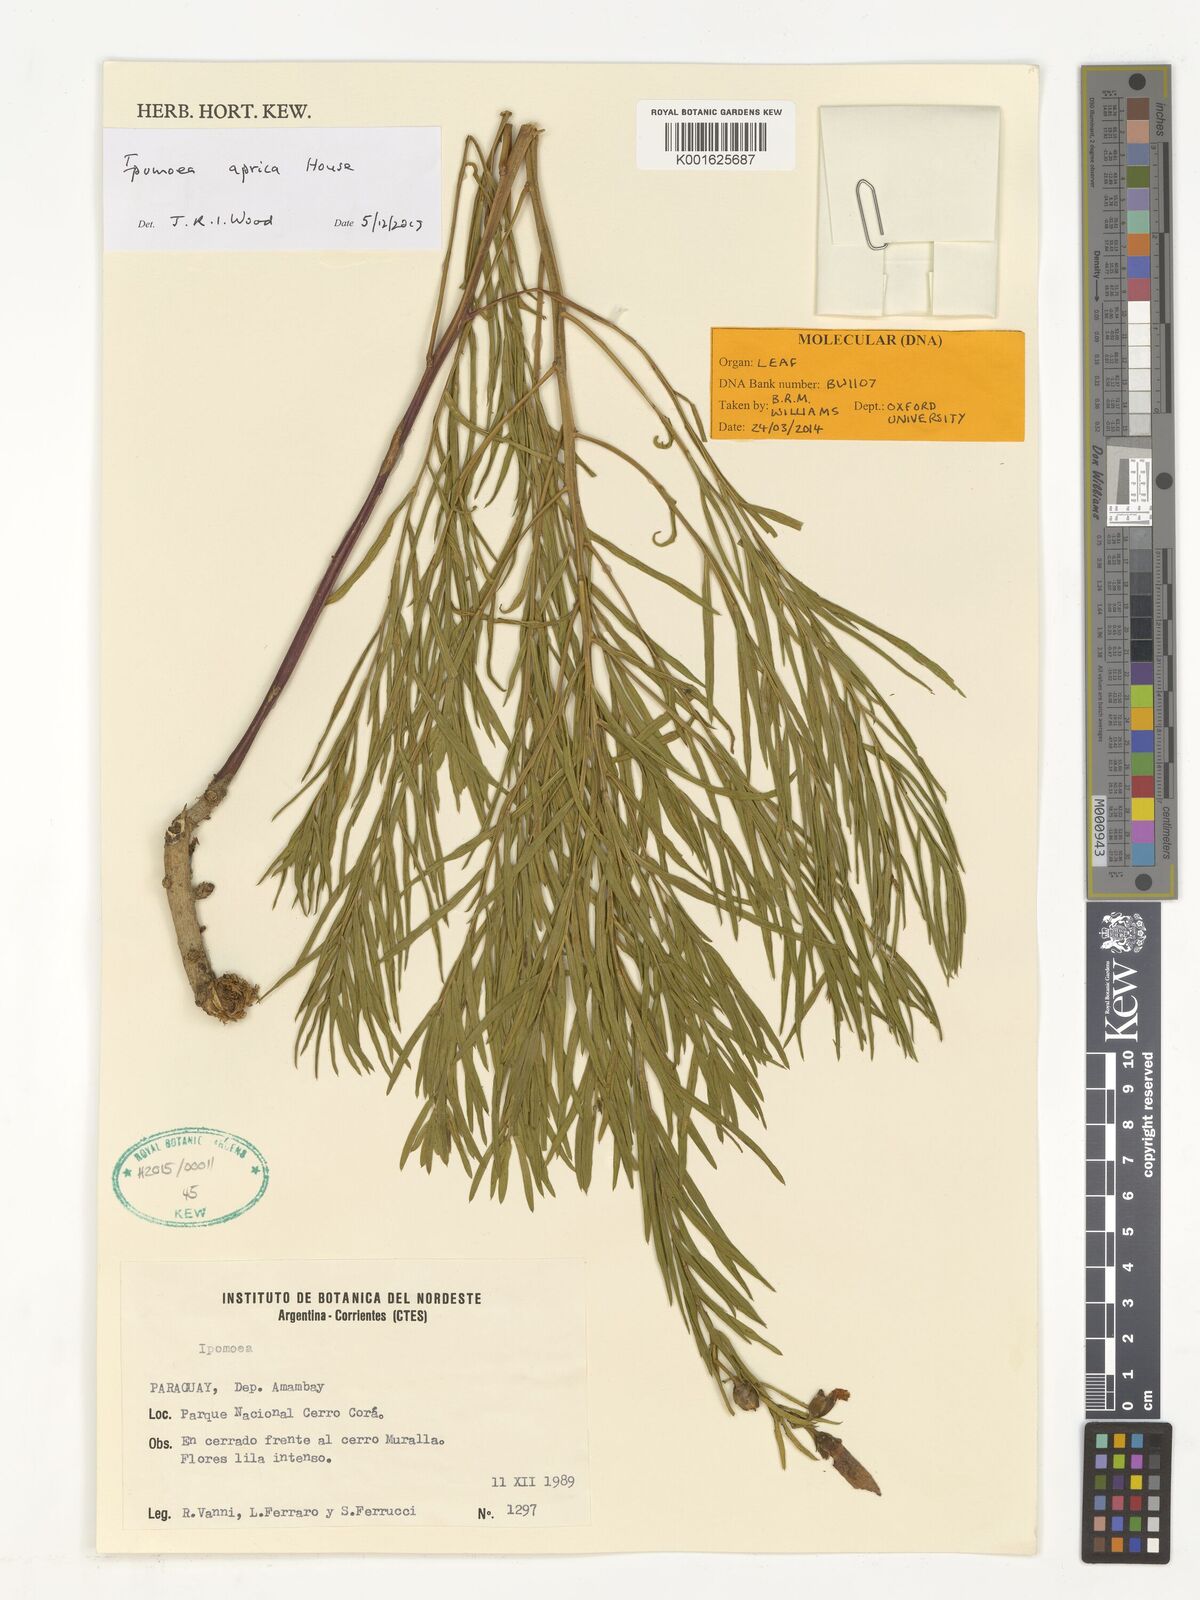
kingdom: Plantae
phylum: Tracheophyta
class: Magnoliopsida
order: Solanales
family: Convolvulaceae
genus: Ipomoea
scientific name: Ipomoea aprica
